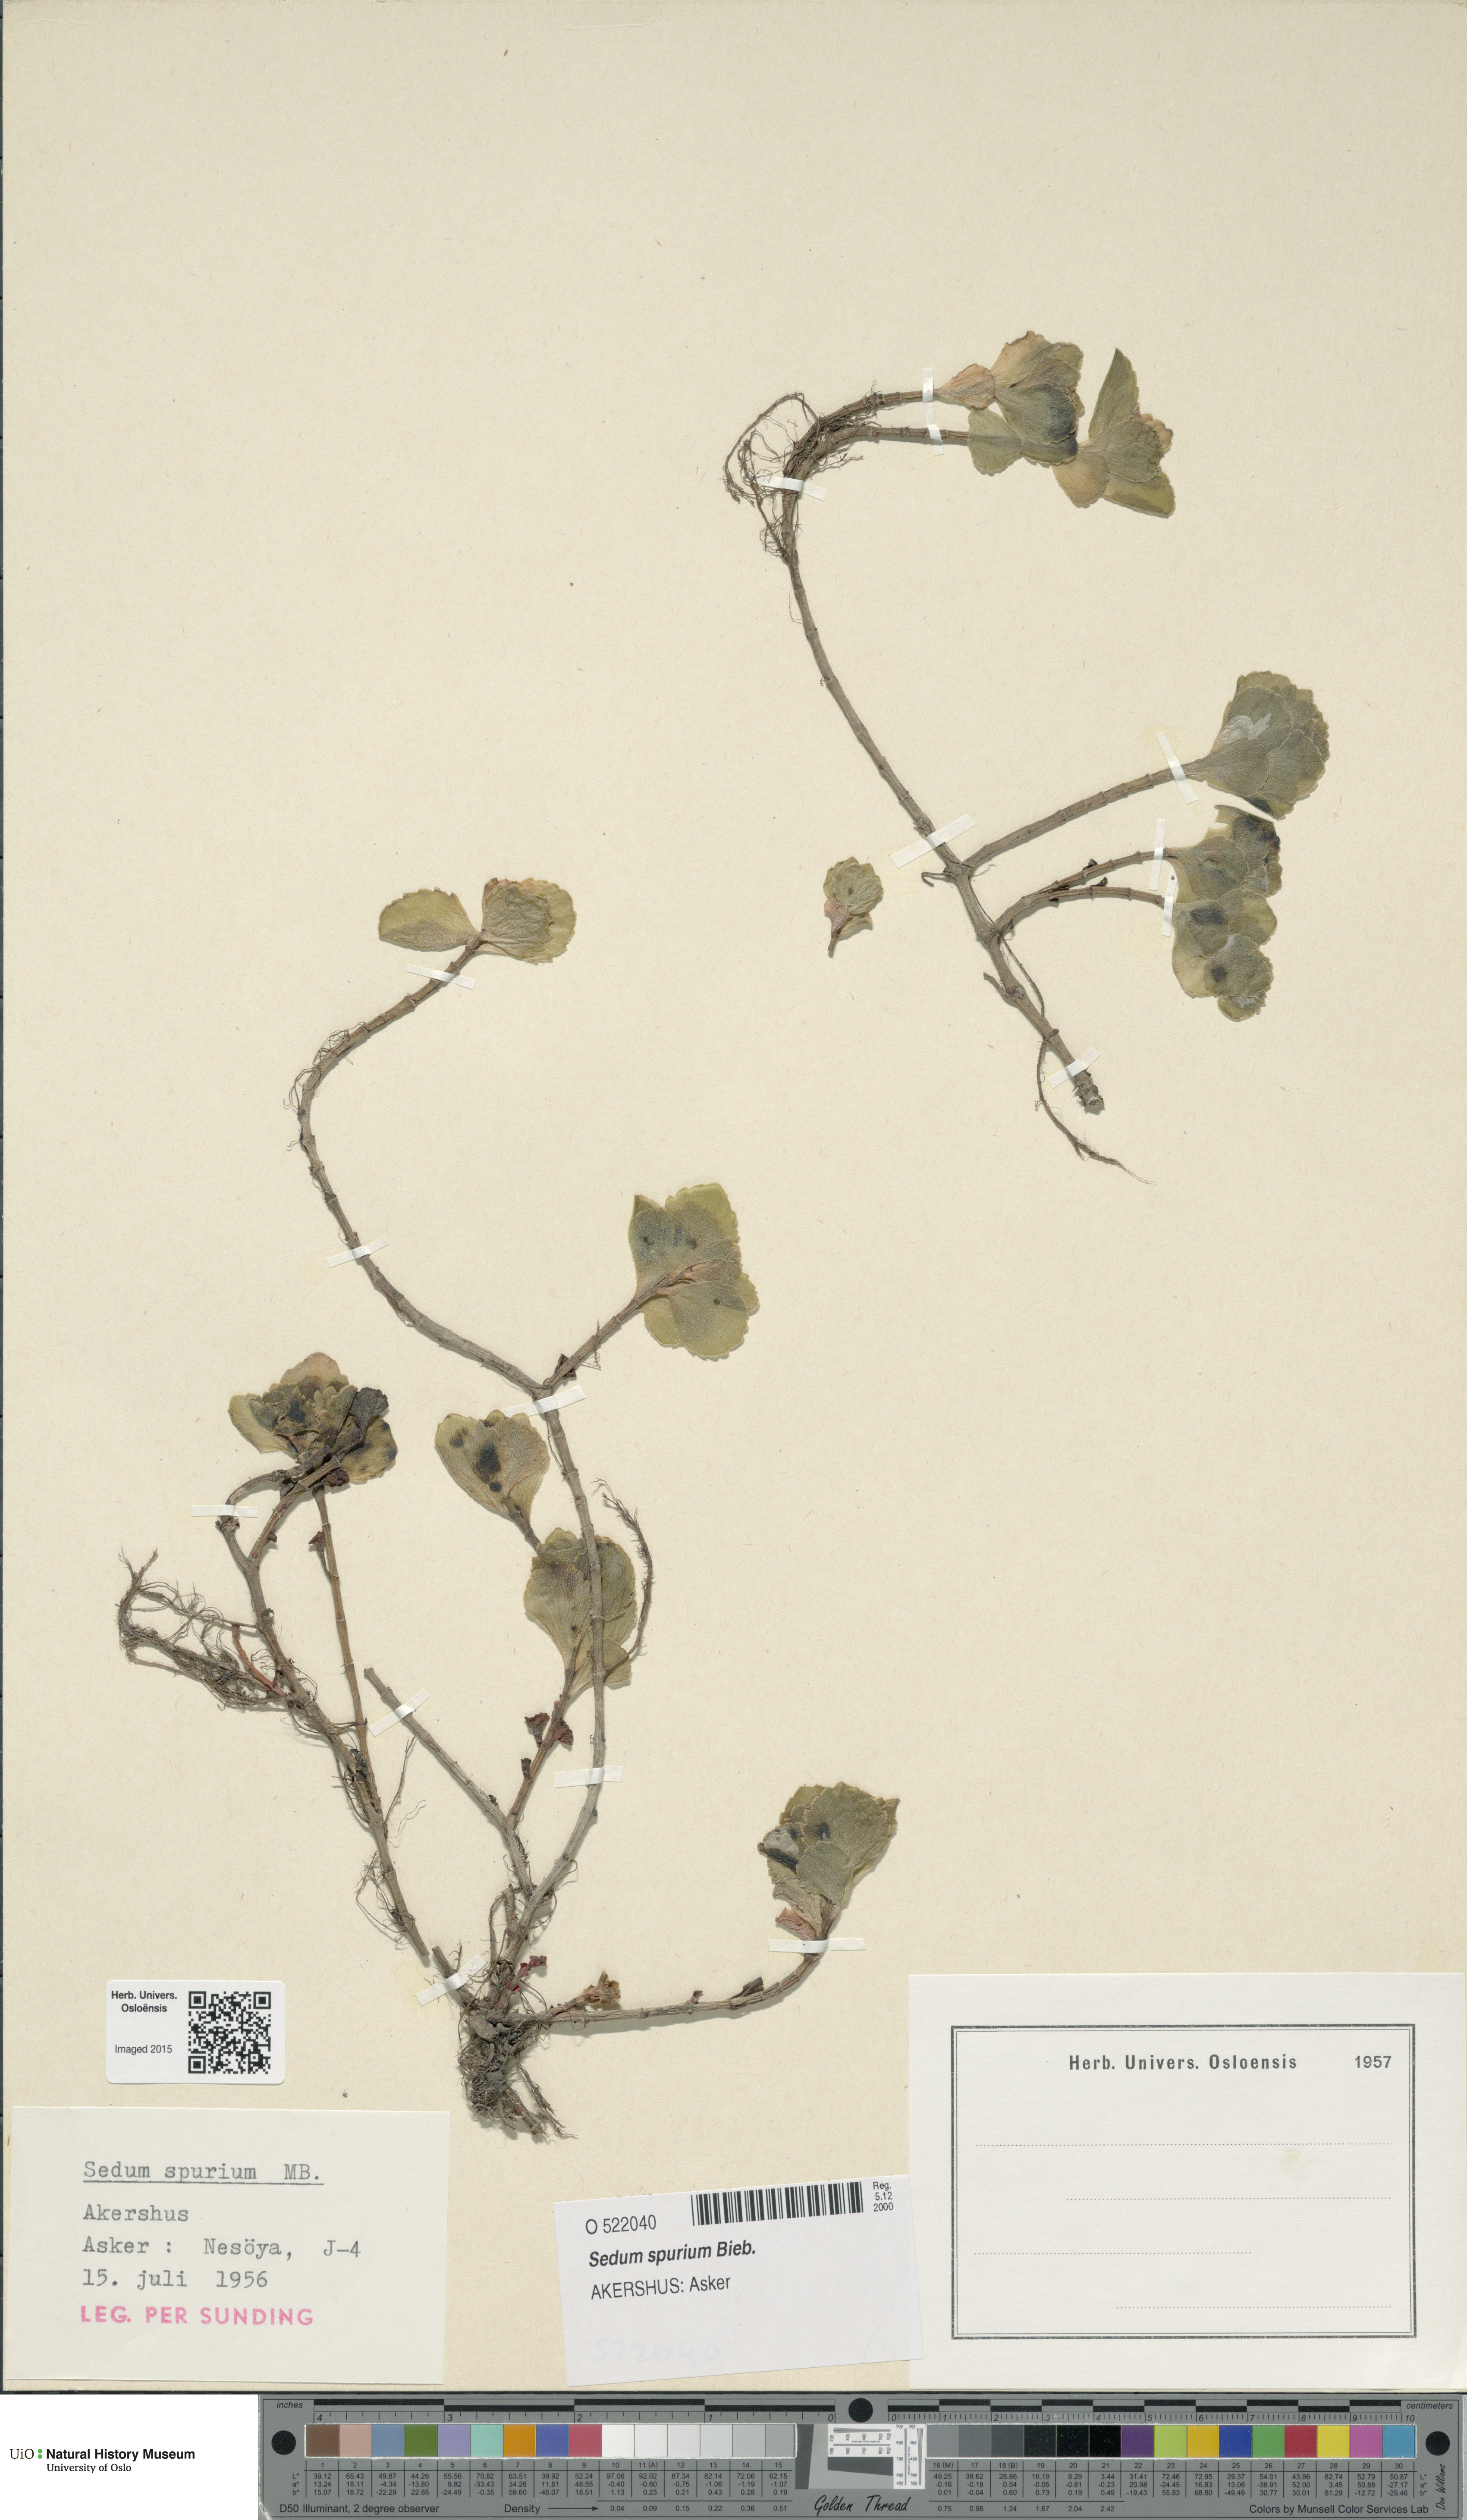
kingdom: Plantae
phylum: Tracheophyta
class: Magnoliopsida
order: Saxifragales
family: Crassulaceae
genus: Phedimus
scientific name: Phedimus spurius
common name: Caucasian stonecrop
